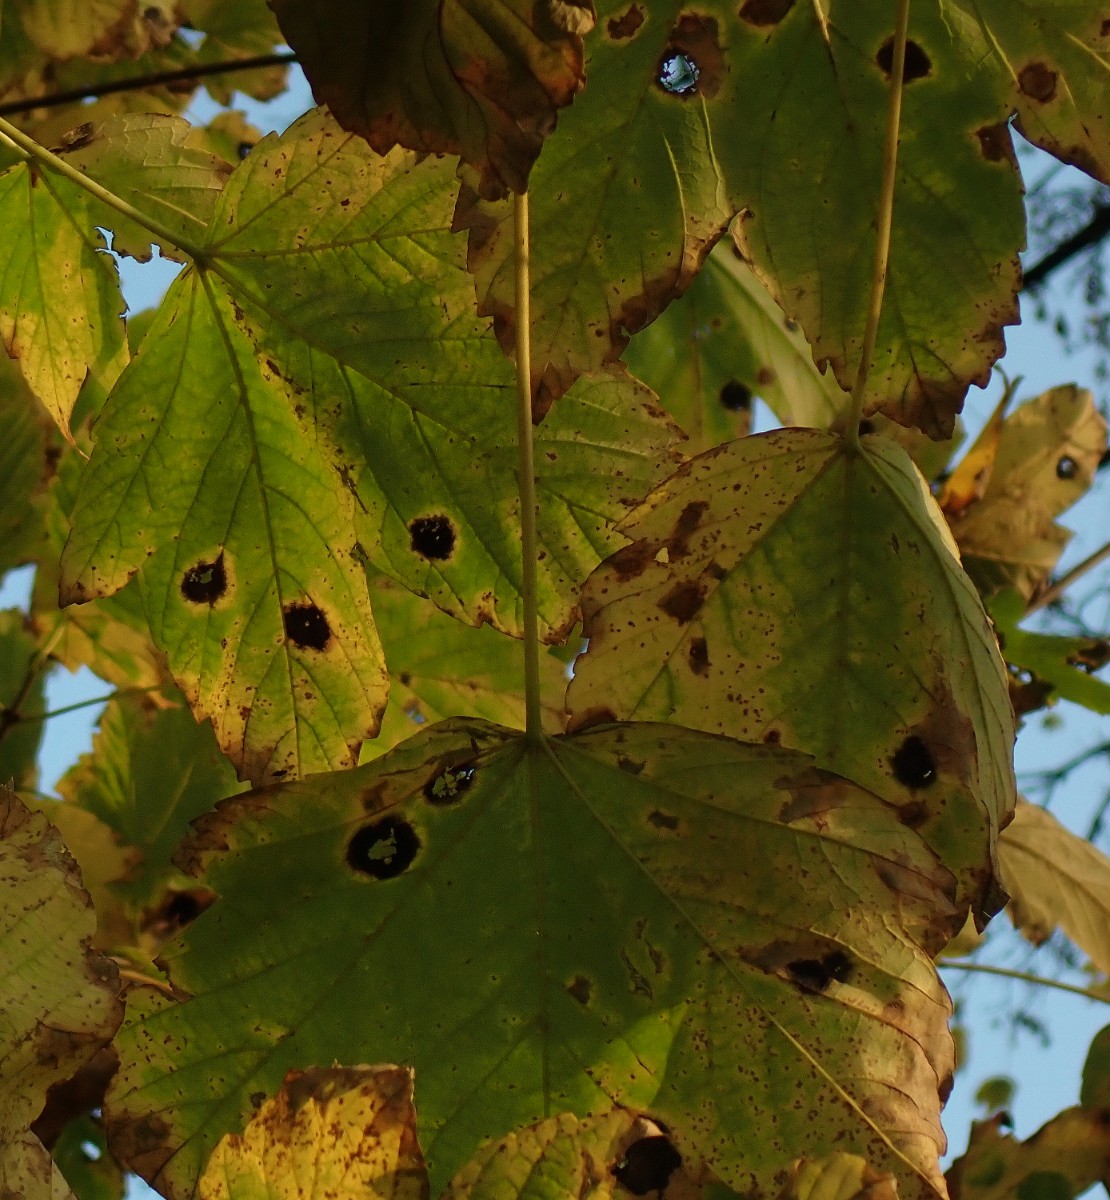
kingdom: Fungi
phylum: Ascomycota
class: Leotiomycetes
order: Rhytismatales
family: Rhytismataceae
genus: Rhytisma
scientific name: Rhytisma acerinum
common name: ahorn-rynkeplet
